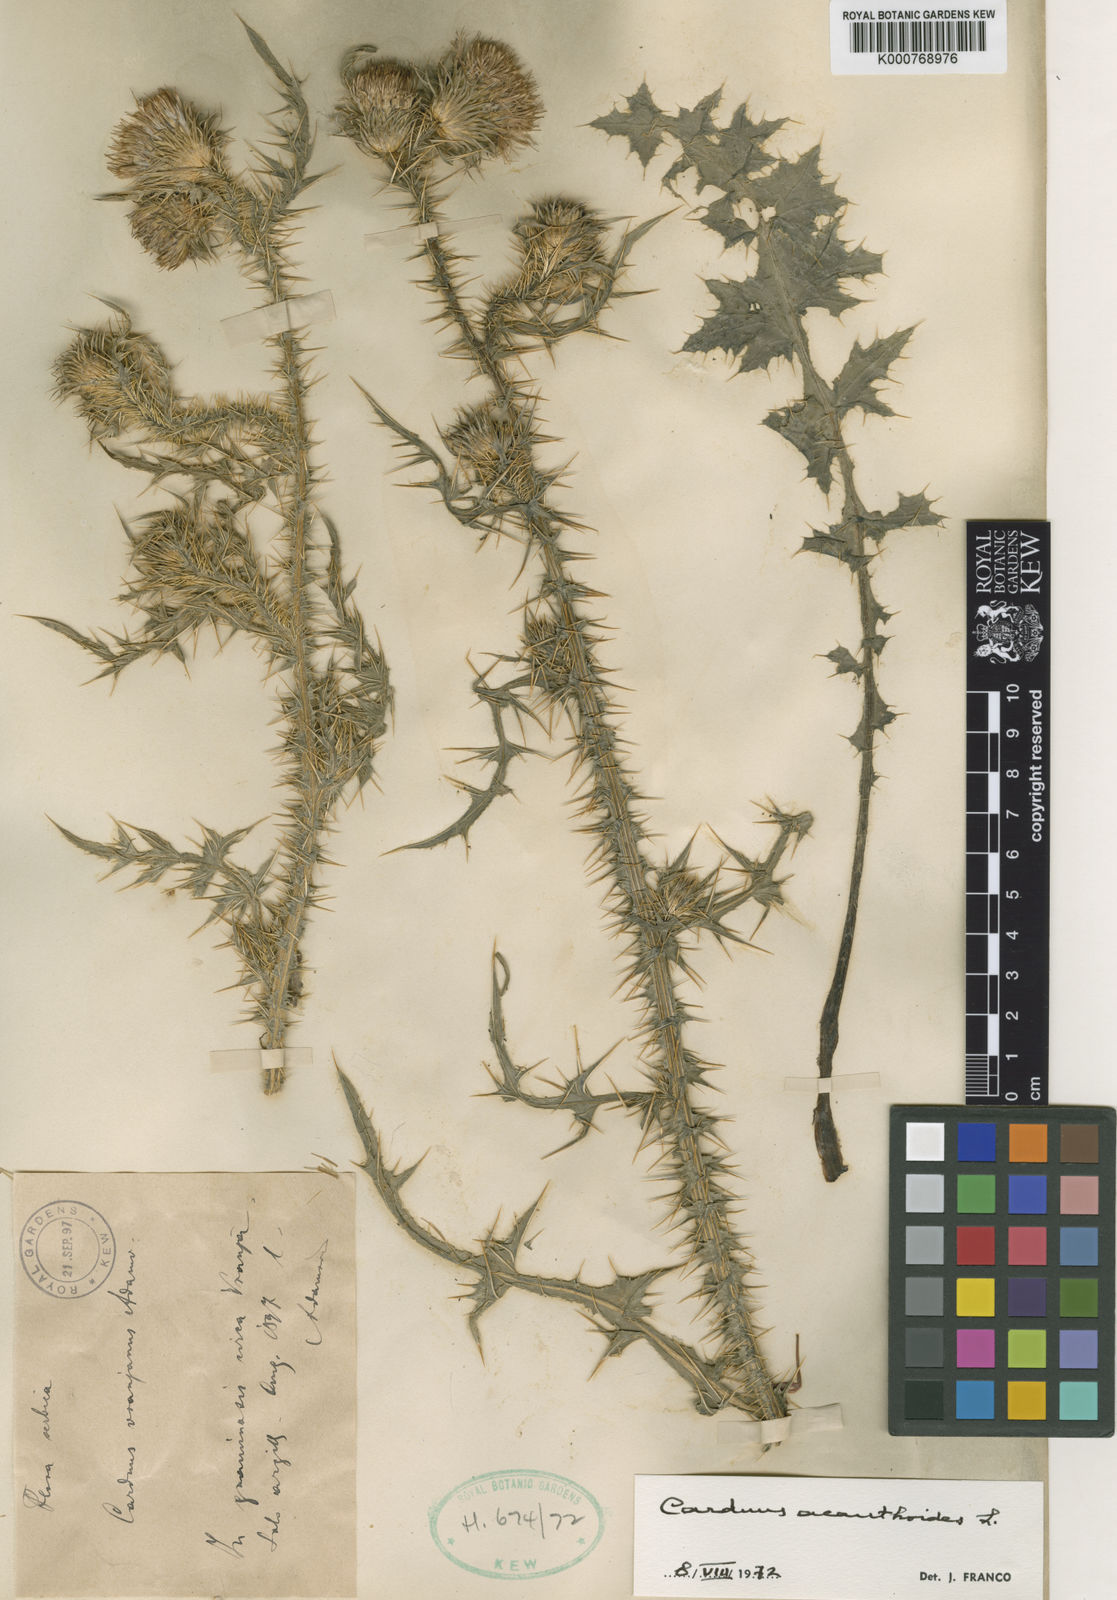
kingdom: Plantae
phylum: Tracheophyta
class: Magnoliopsida
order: Asterales
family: Asteraceae
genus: Carduus
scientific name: Carduus acanthoides
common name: Plumeless thistle
